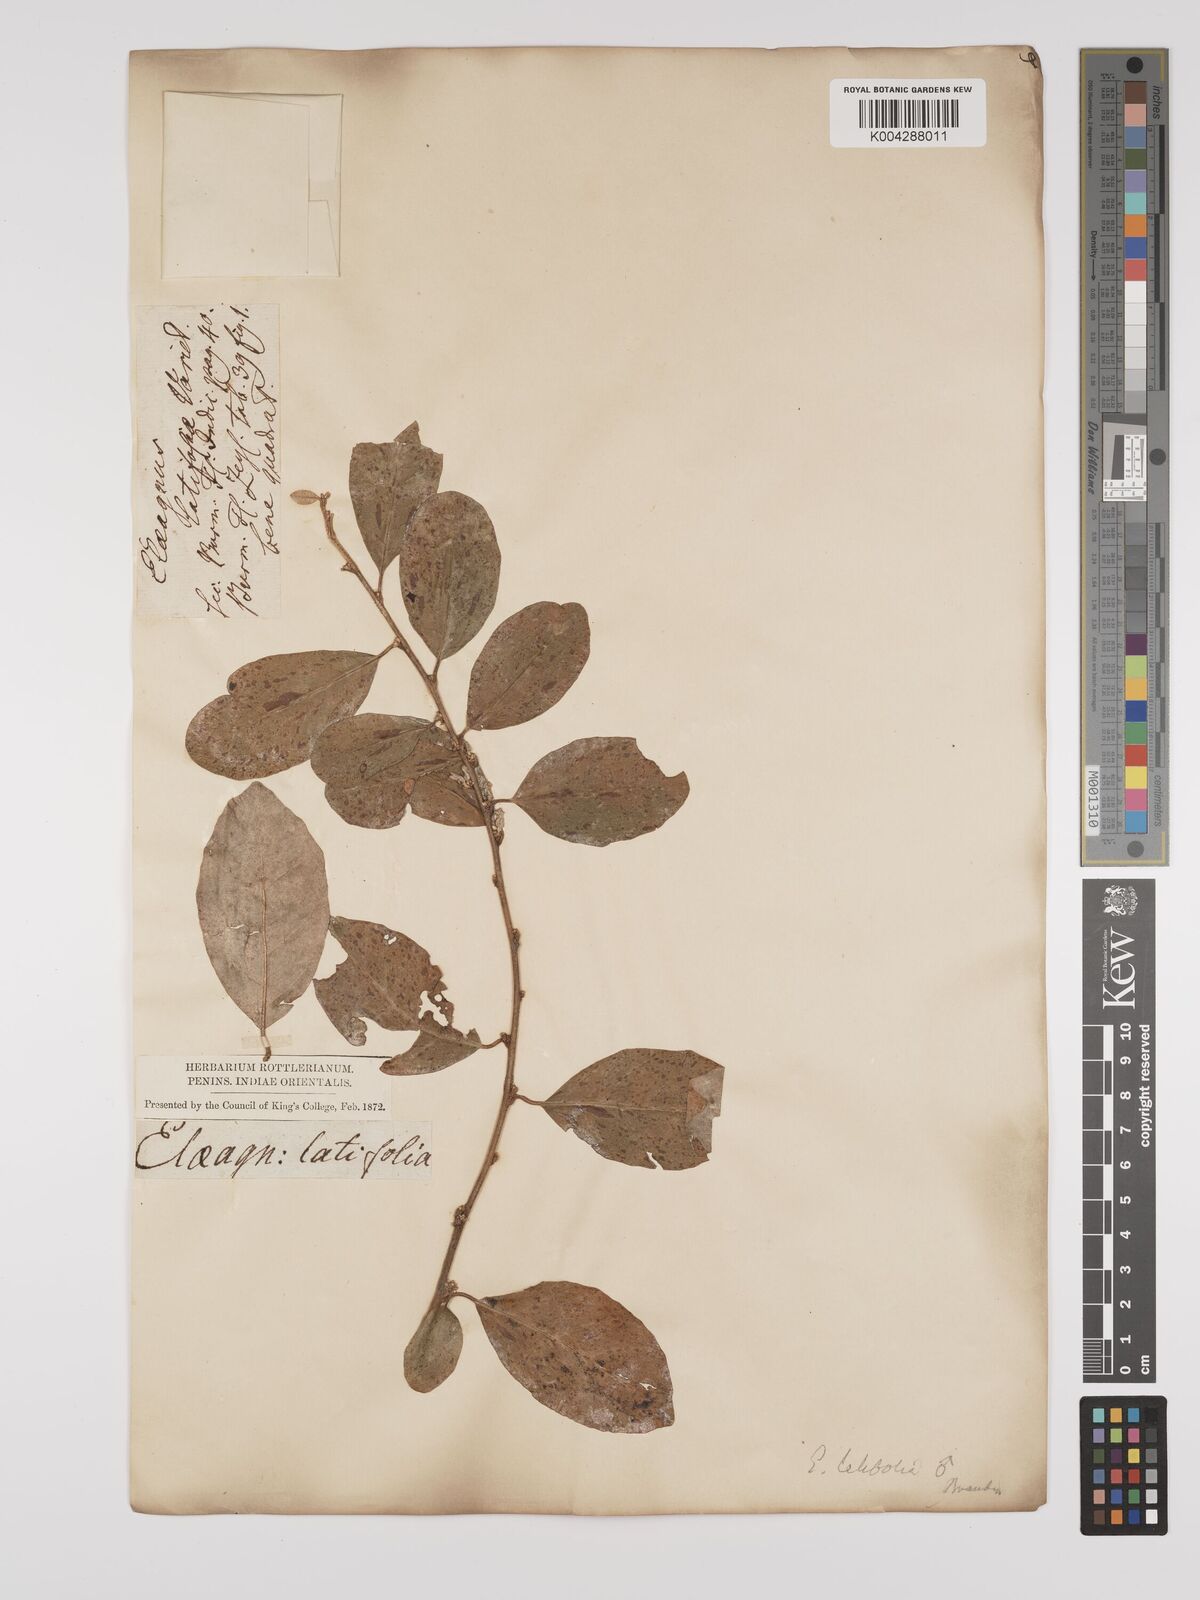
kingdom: Plantae
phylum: Tracheophyta
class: Magnoliopsida
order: Rosales
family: Elaeagnaceae
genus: Elaeagnus
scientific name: Elaeagnus latifolia
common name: Oleaster
